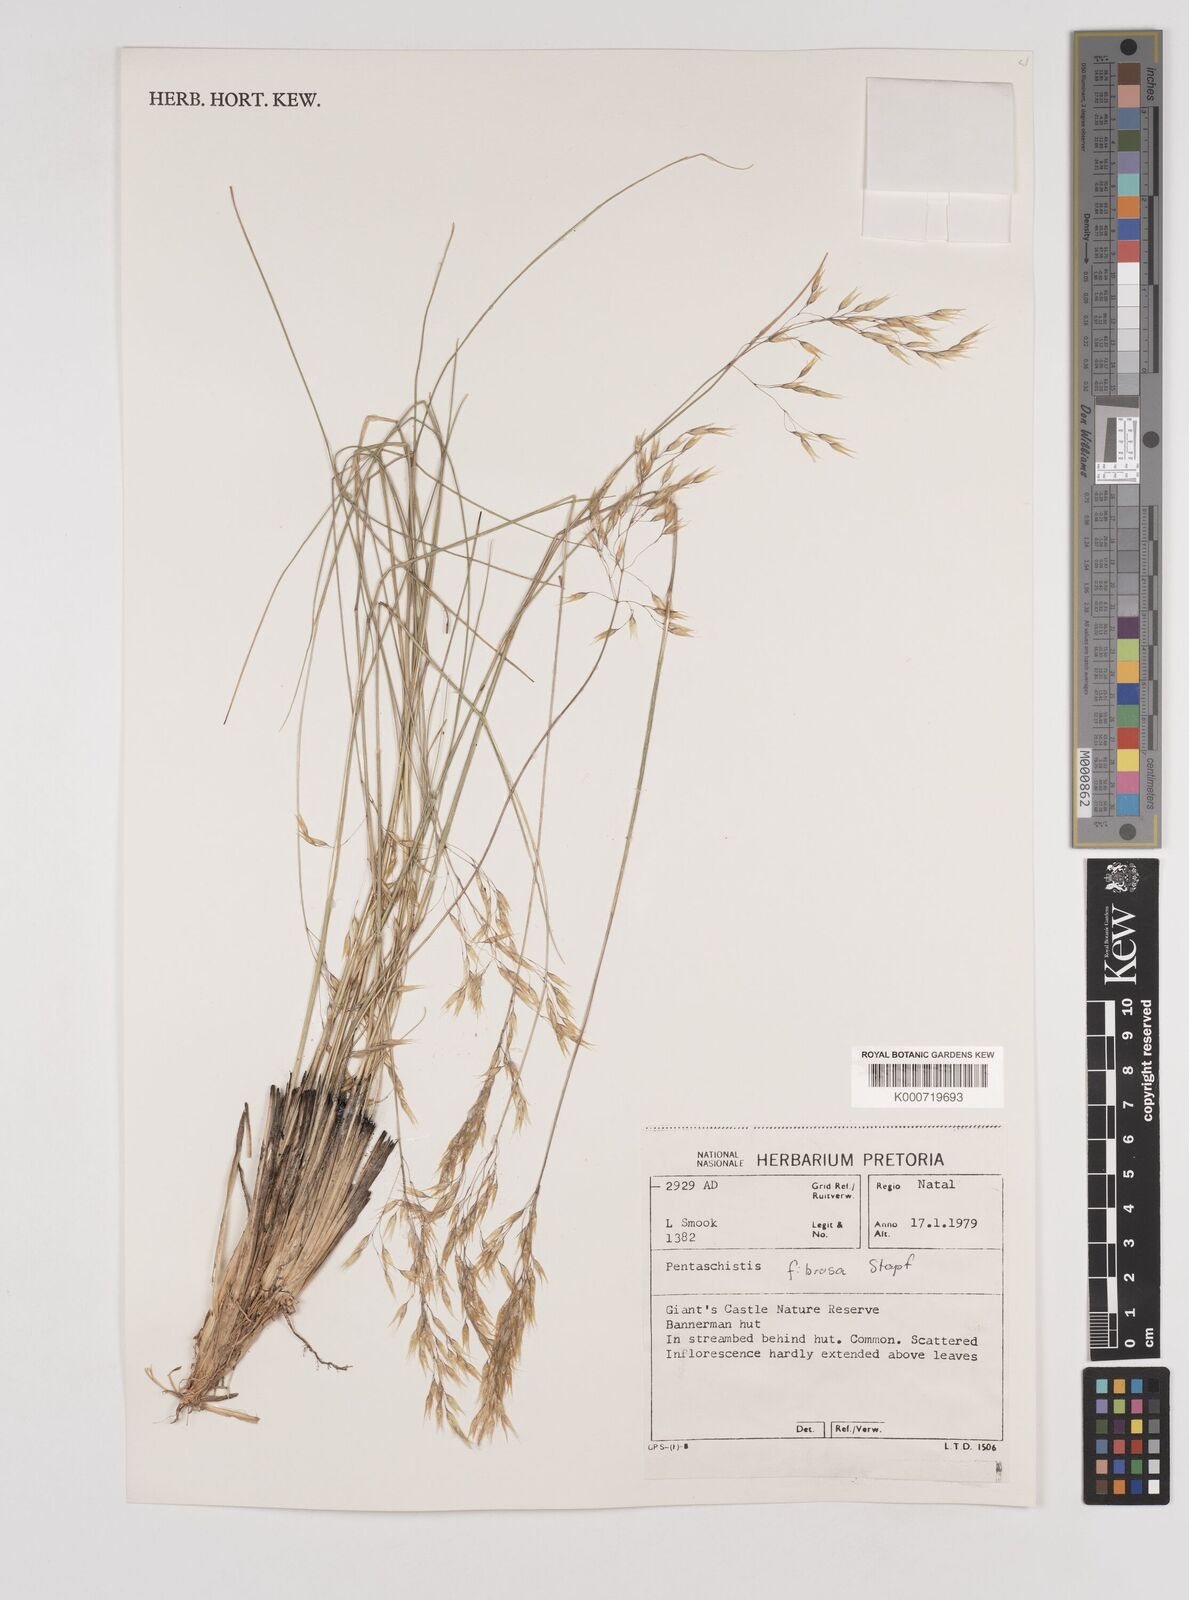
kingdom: Plantae
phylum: Tracheophyta
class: Liliopsida
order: Poales
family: Poaceae
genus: Pentameris
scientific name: Pentameris tysonii
